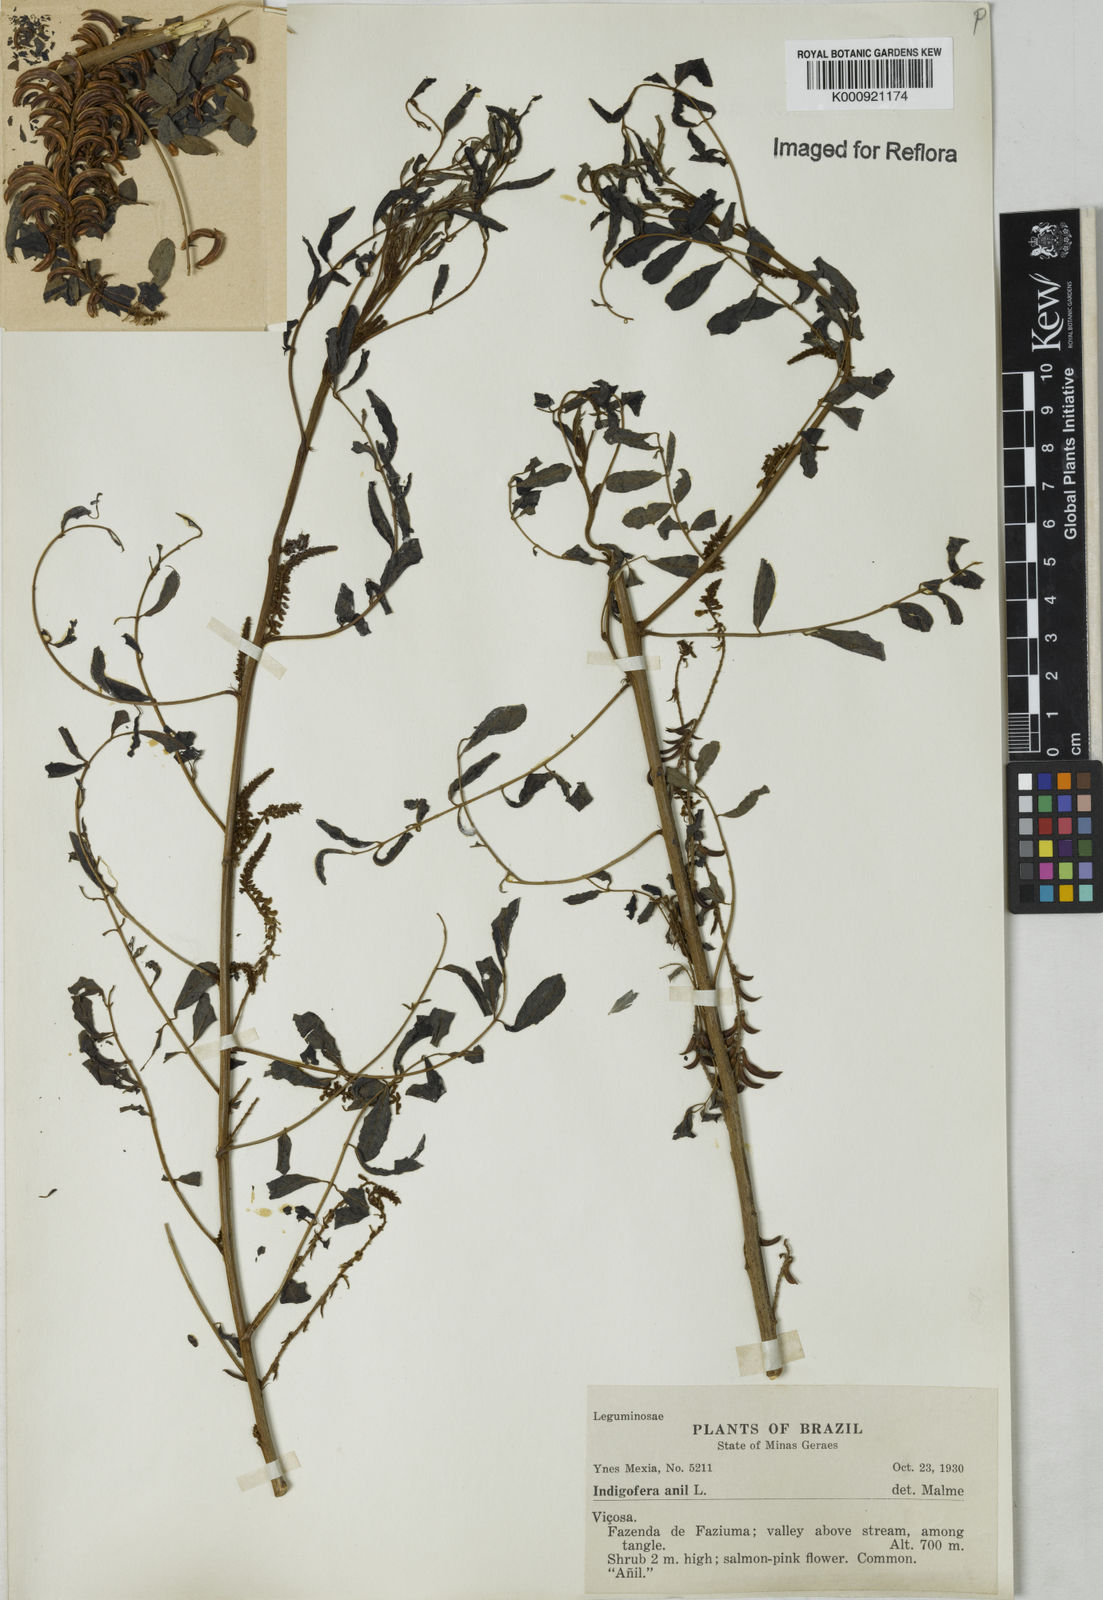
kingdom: Plantae
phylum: Tracheophyta
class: Magnoliopsida
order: Fabales
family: Fabaceae
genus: Indigofera
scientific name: Indigofera suffruticosa
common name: Anil de pasto
